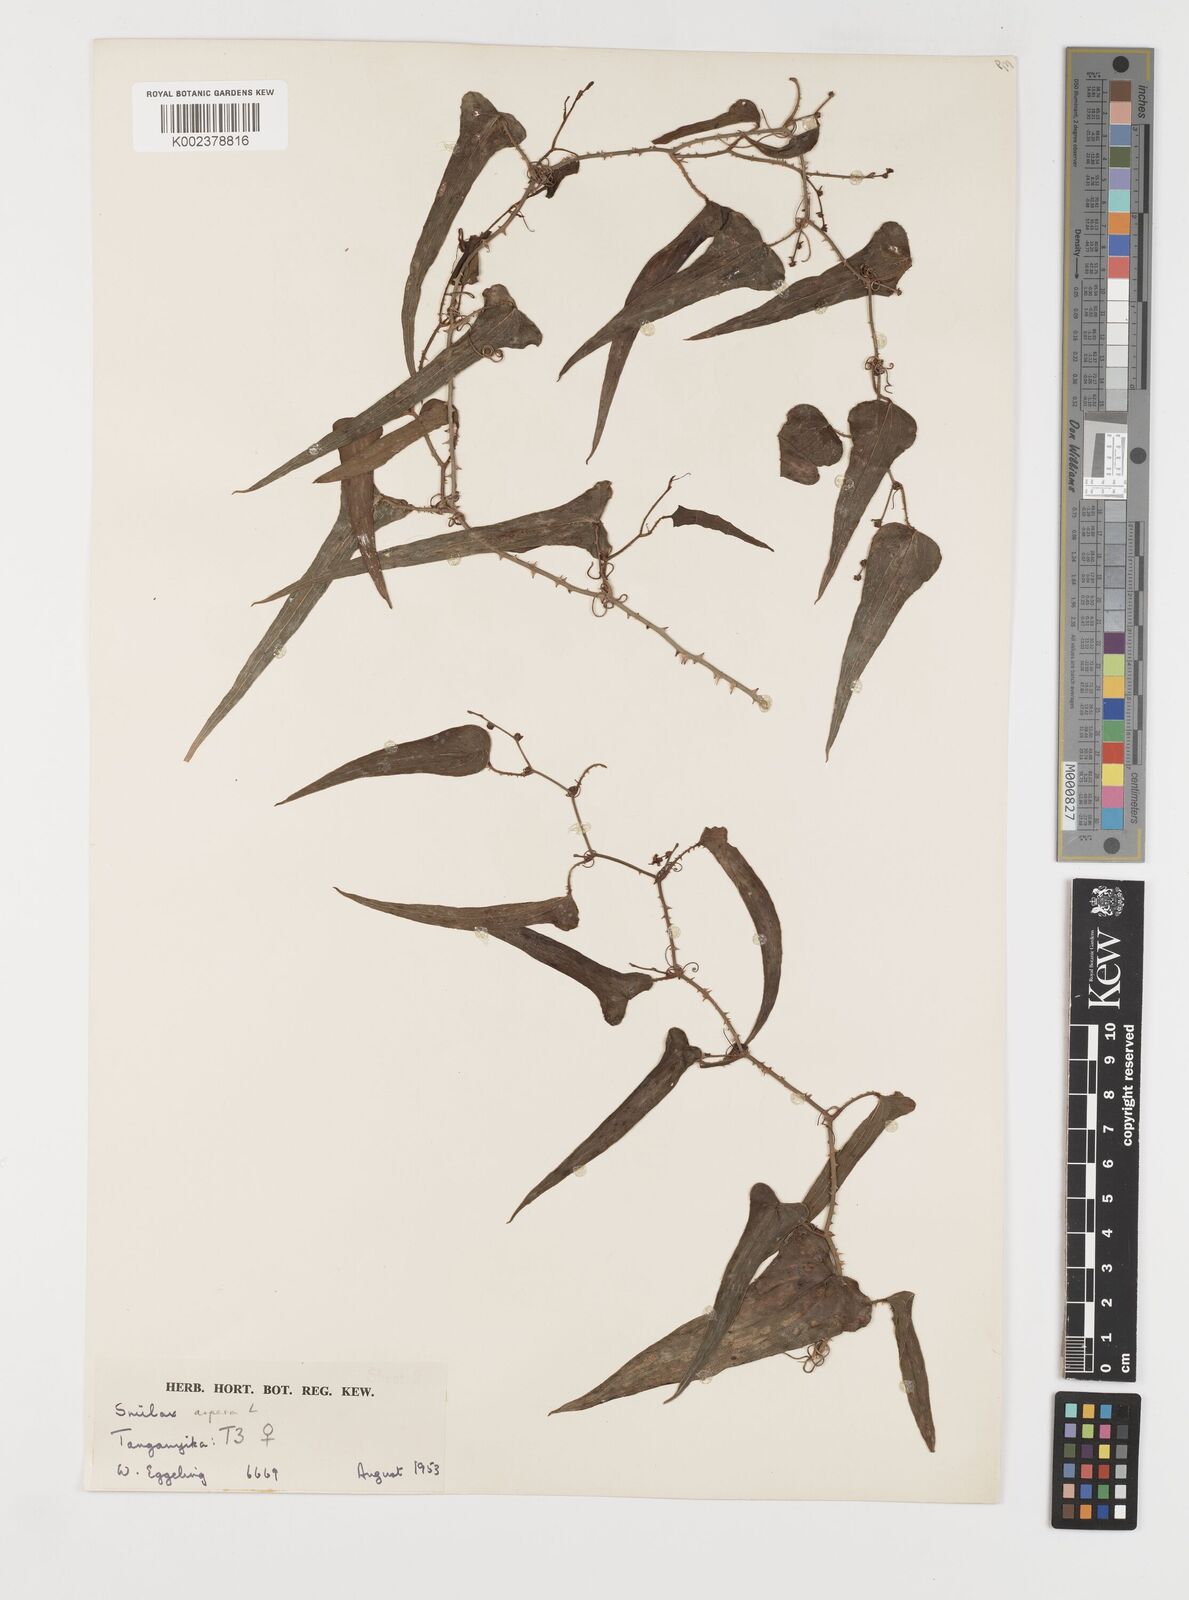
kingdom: Plantae
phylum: Tracheophyta
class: Liliopsida
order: Liliales
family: Smilacaceae
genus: Smilax
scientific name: Smilax aspera
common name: Common smilax
